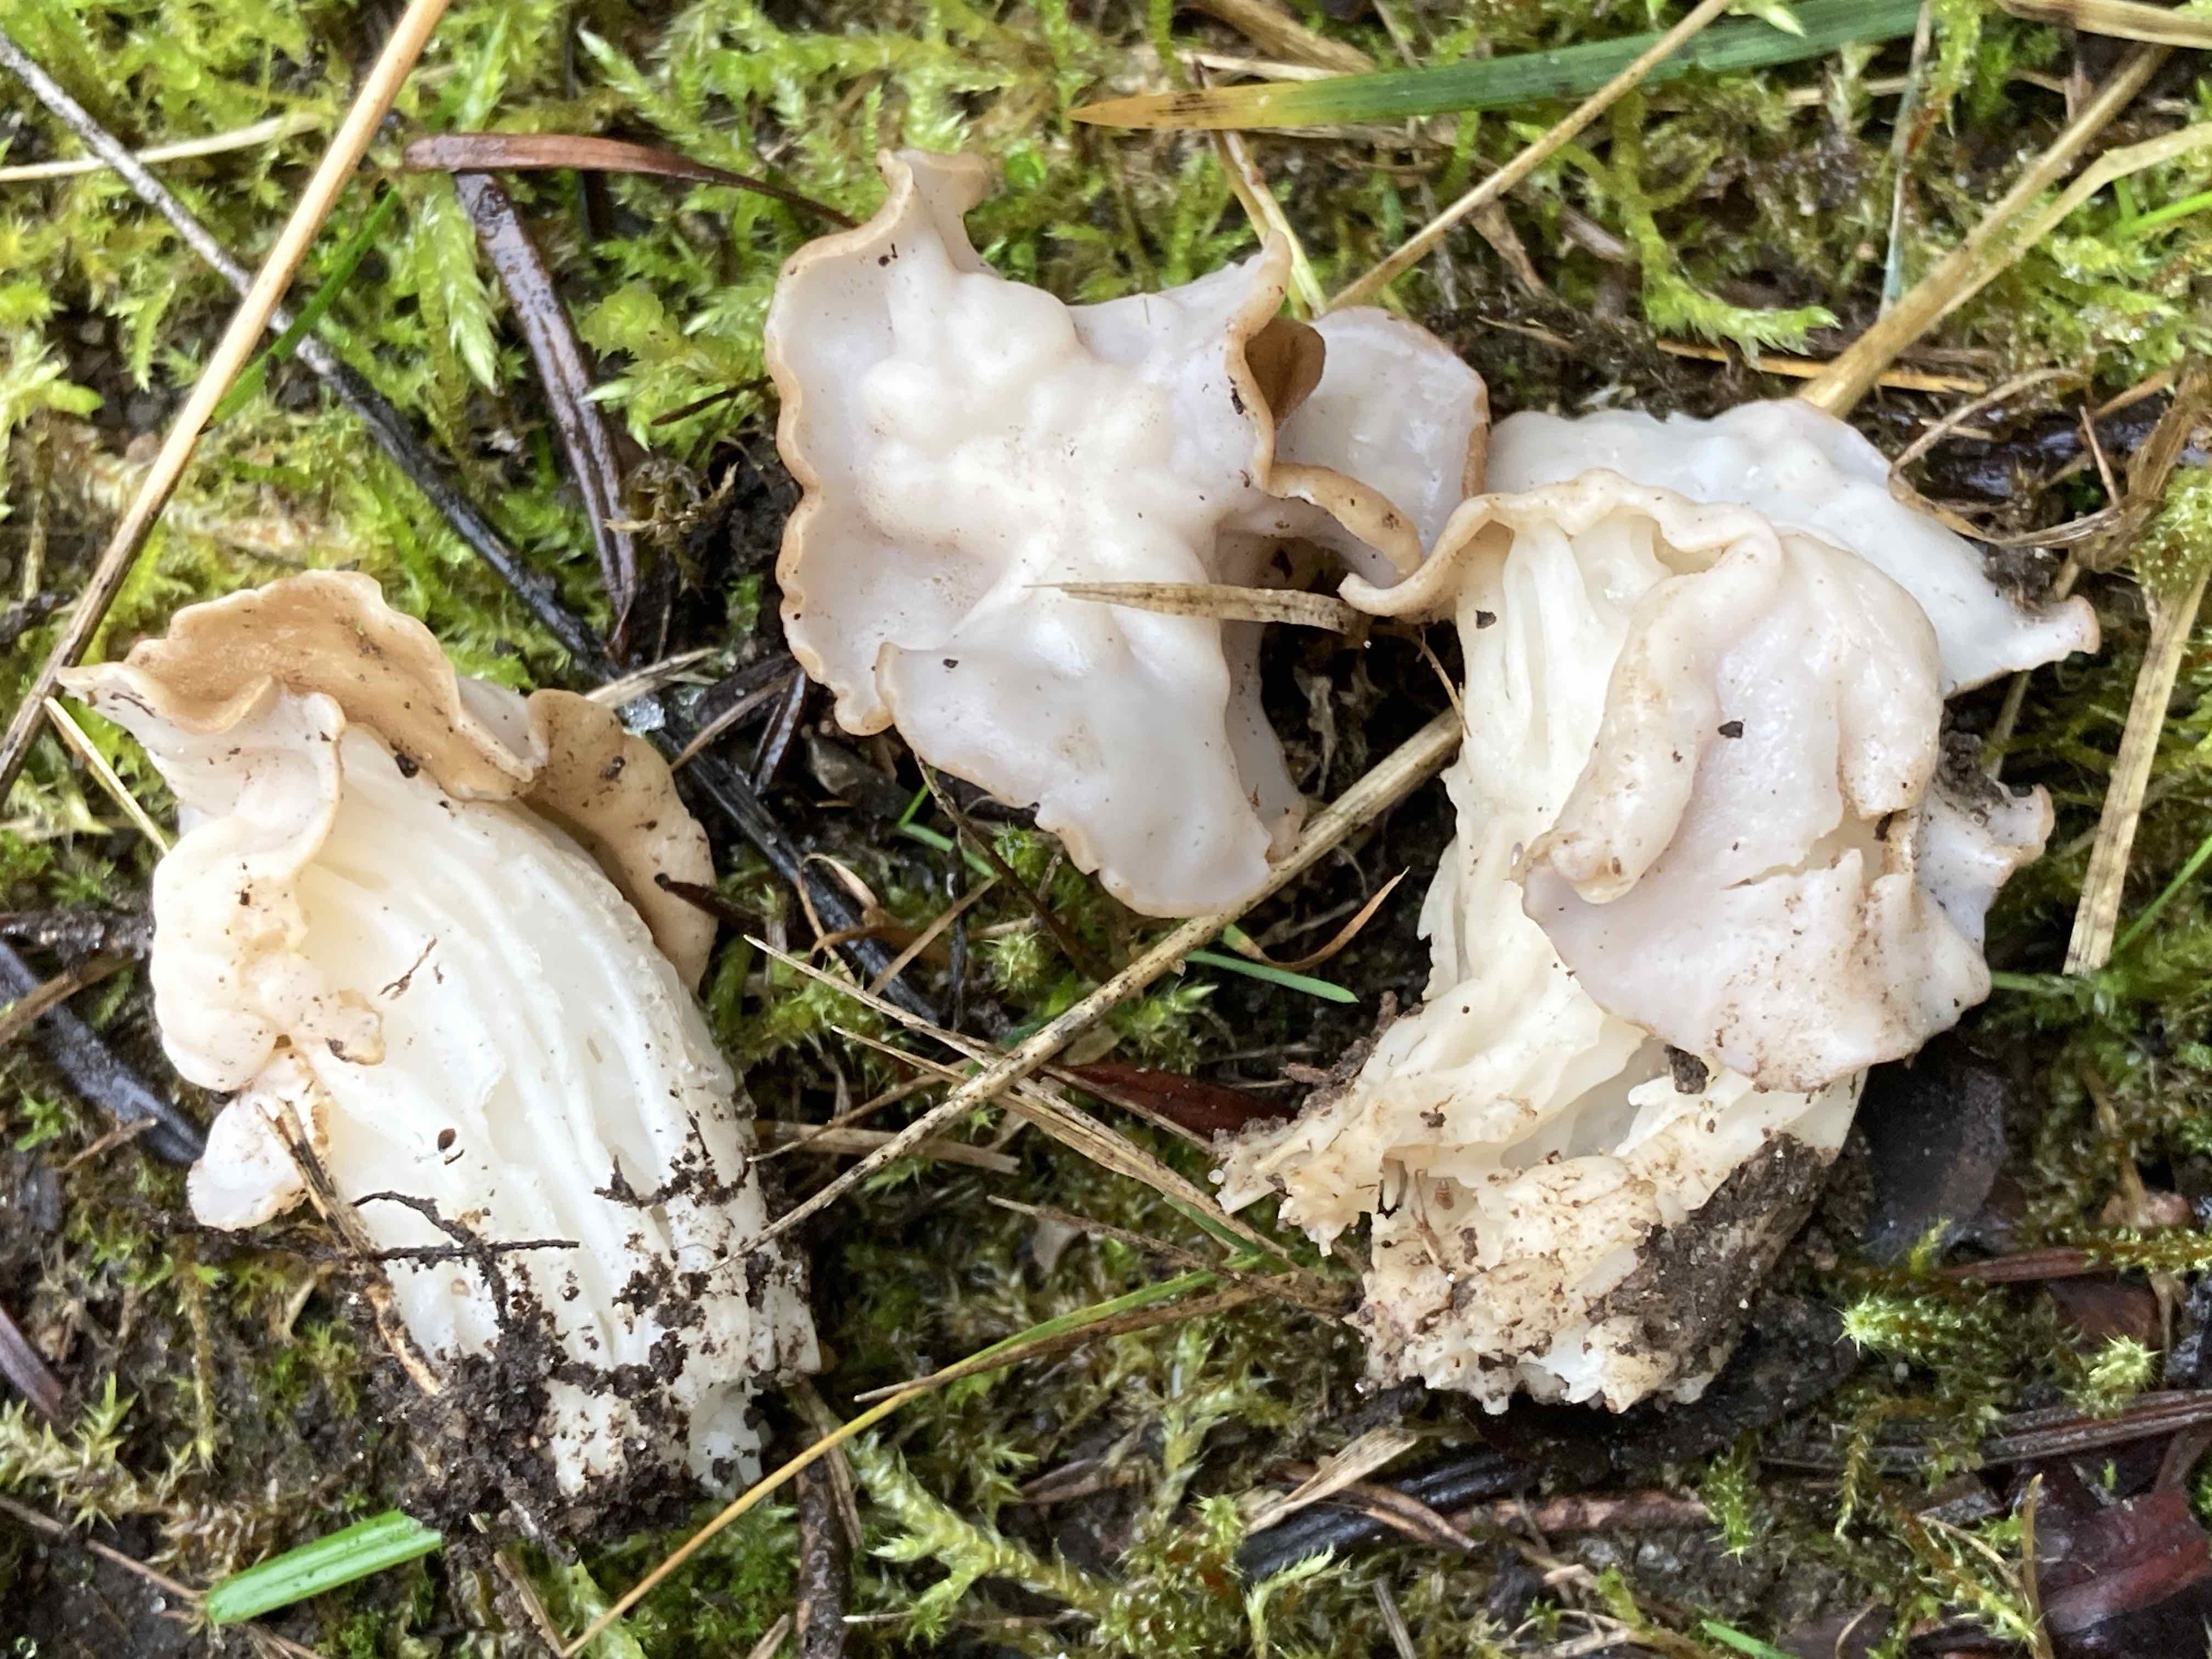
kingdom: Fungi
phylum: Ascomycota
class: Pezizomycetes
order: Pezizales
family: Helvellaceae
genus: Helvella
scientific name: Helvella crispa
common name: kruset foldhat
